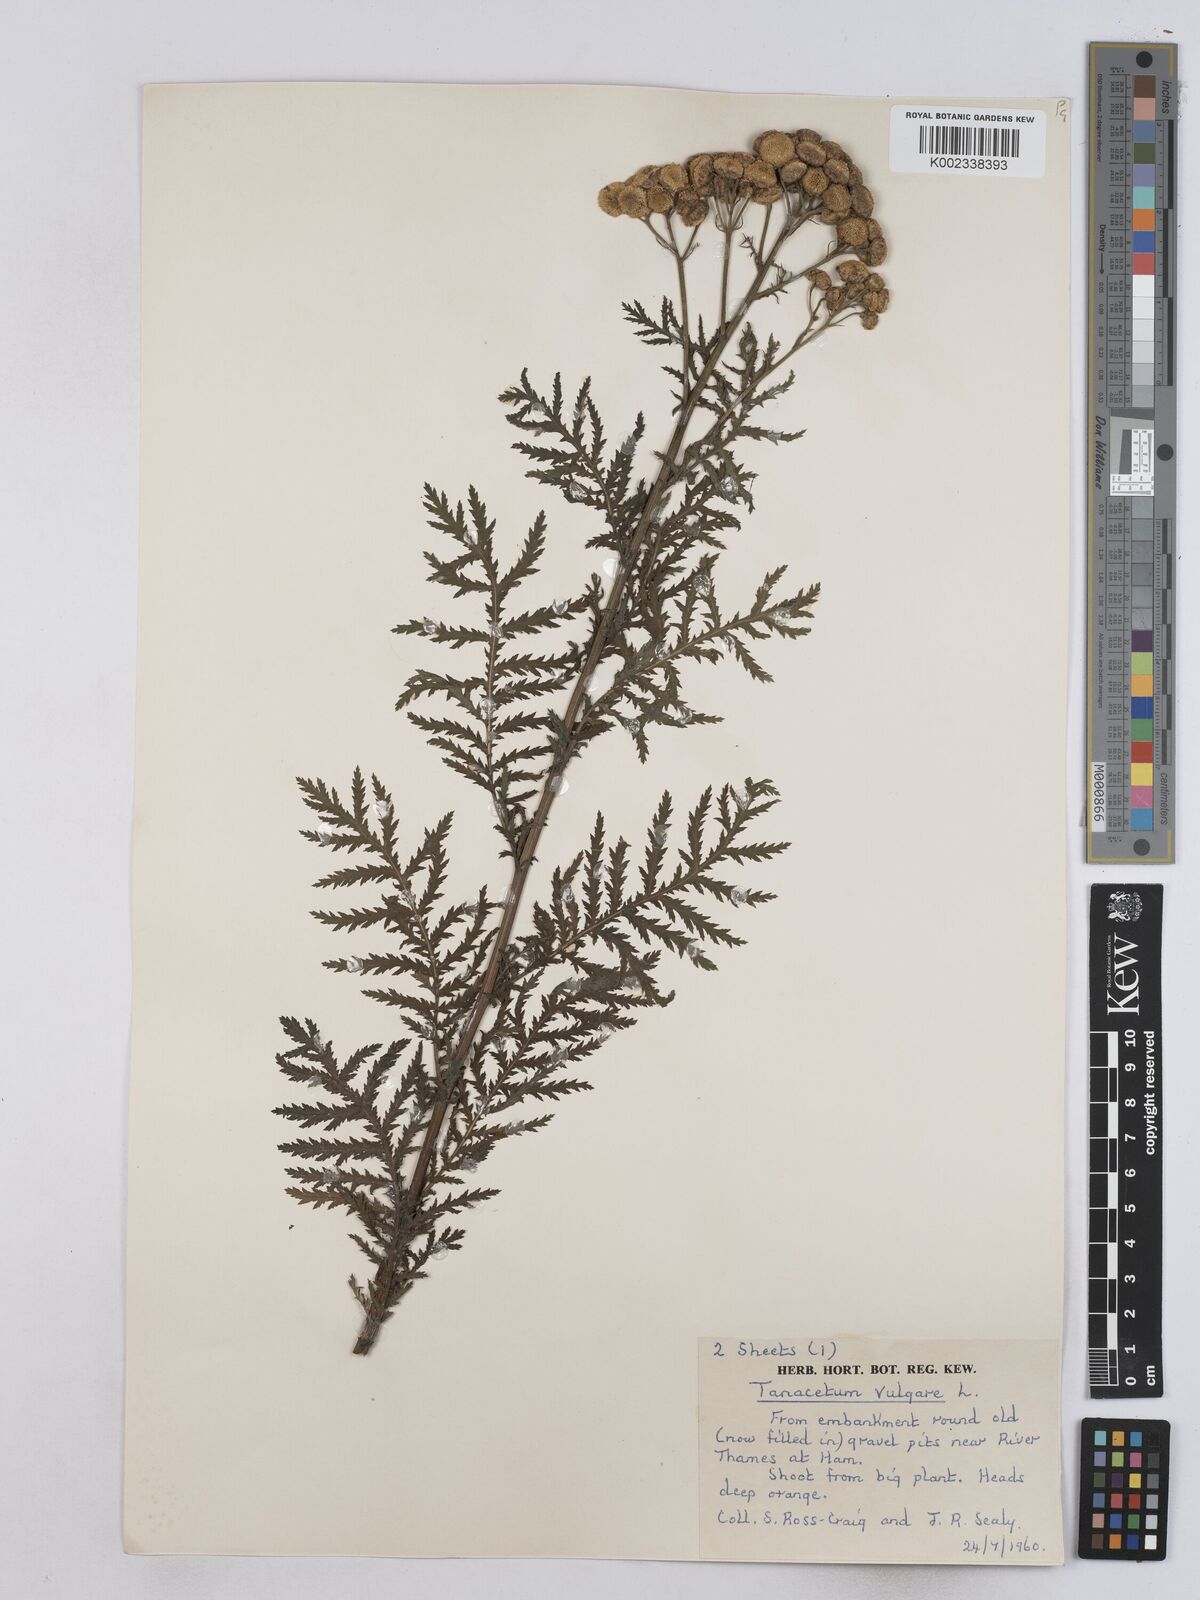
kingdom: Plantae
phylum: Tracheophyta
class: Magnoliopsida
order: Asterales
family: Asteraceae
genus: Tanacetum
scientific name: Tanacetum vulgare
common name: Common tansy
